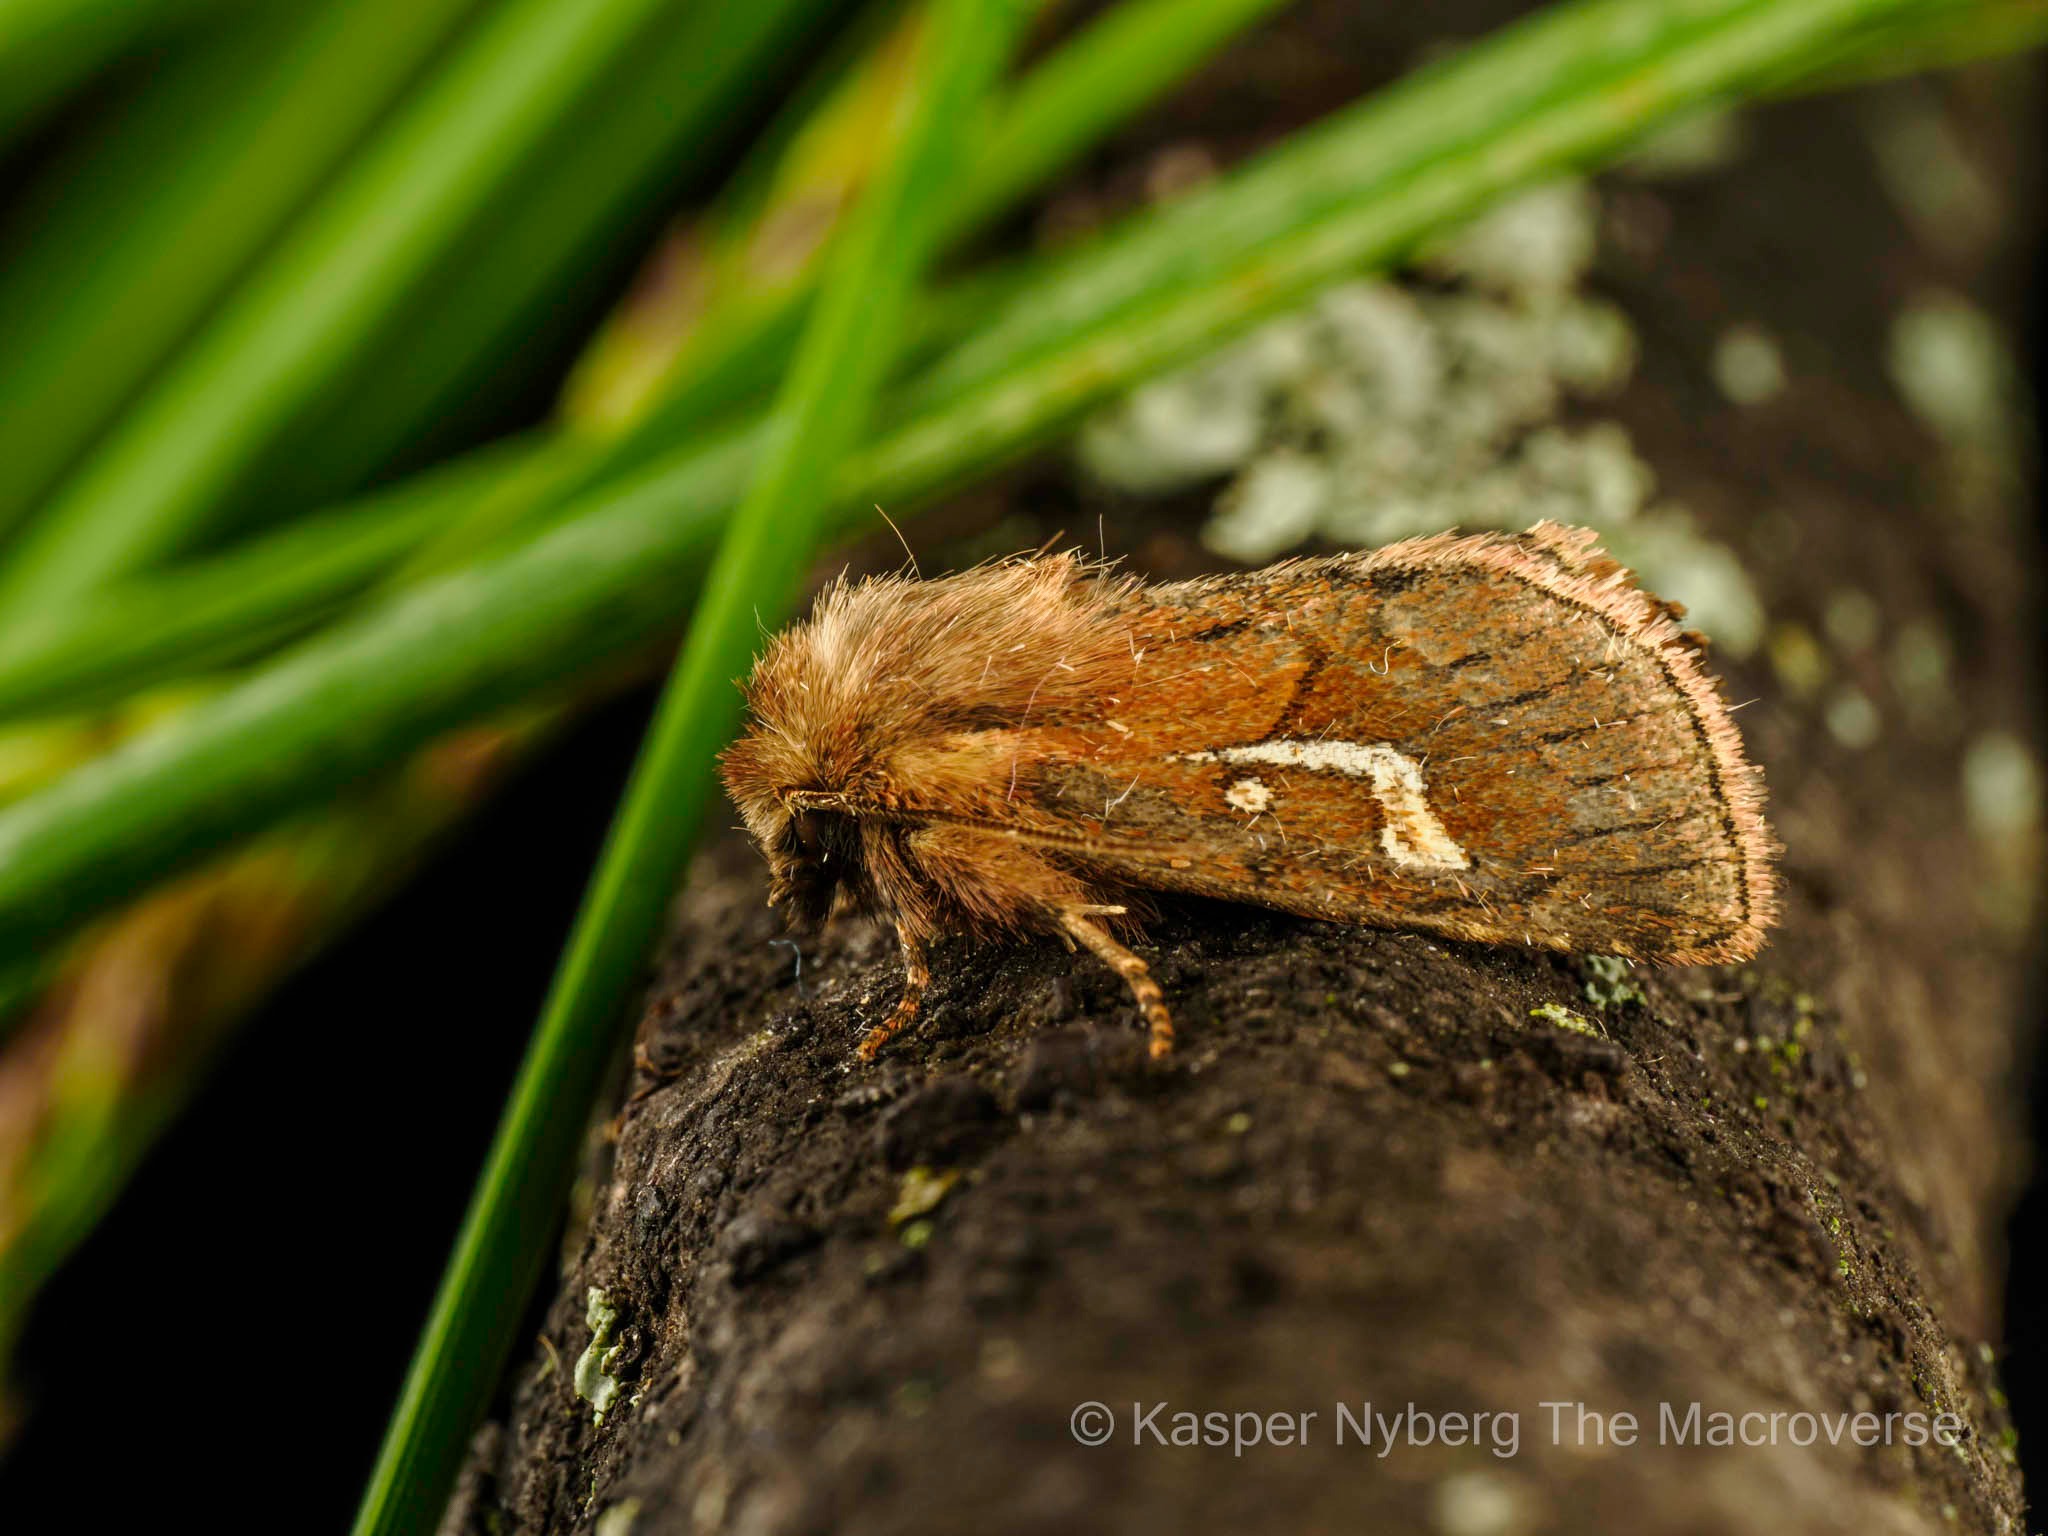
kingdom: Animalia
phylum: Arthropoda
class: Insecta
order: Lepidoptera
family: Noctuidae
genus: Phragmatiphila
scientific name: Phragmatiphila nexa
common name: Sødgræs-stængelugle
